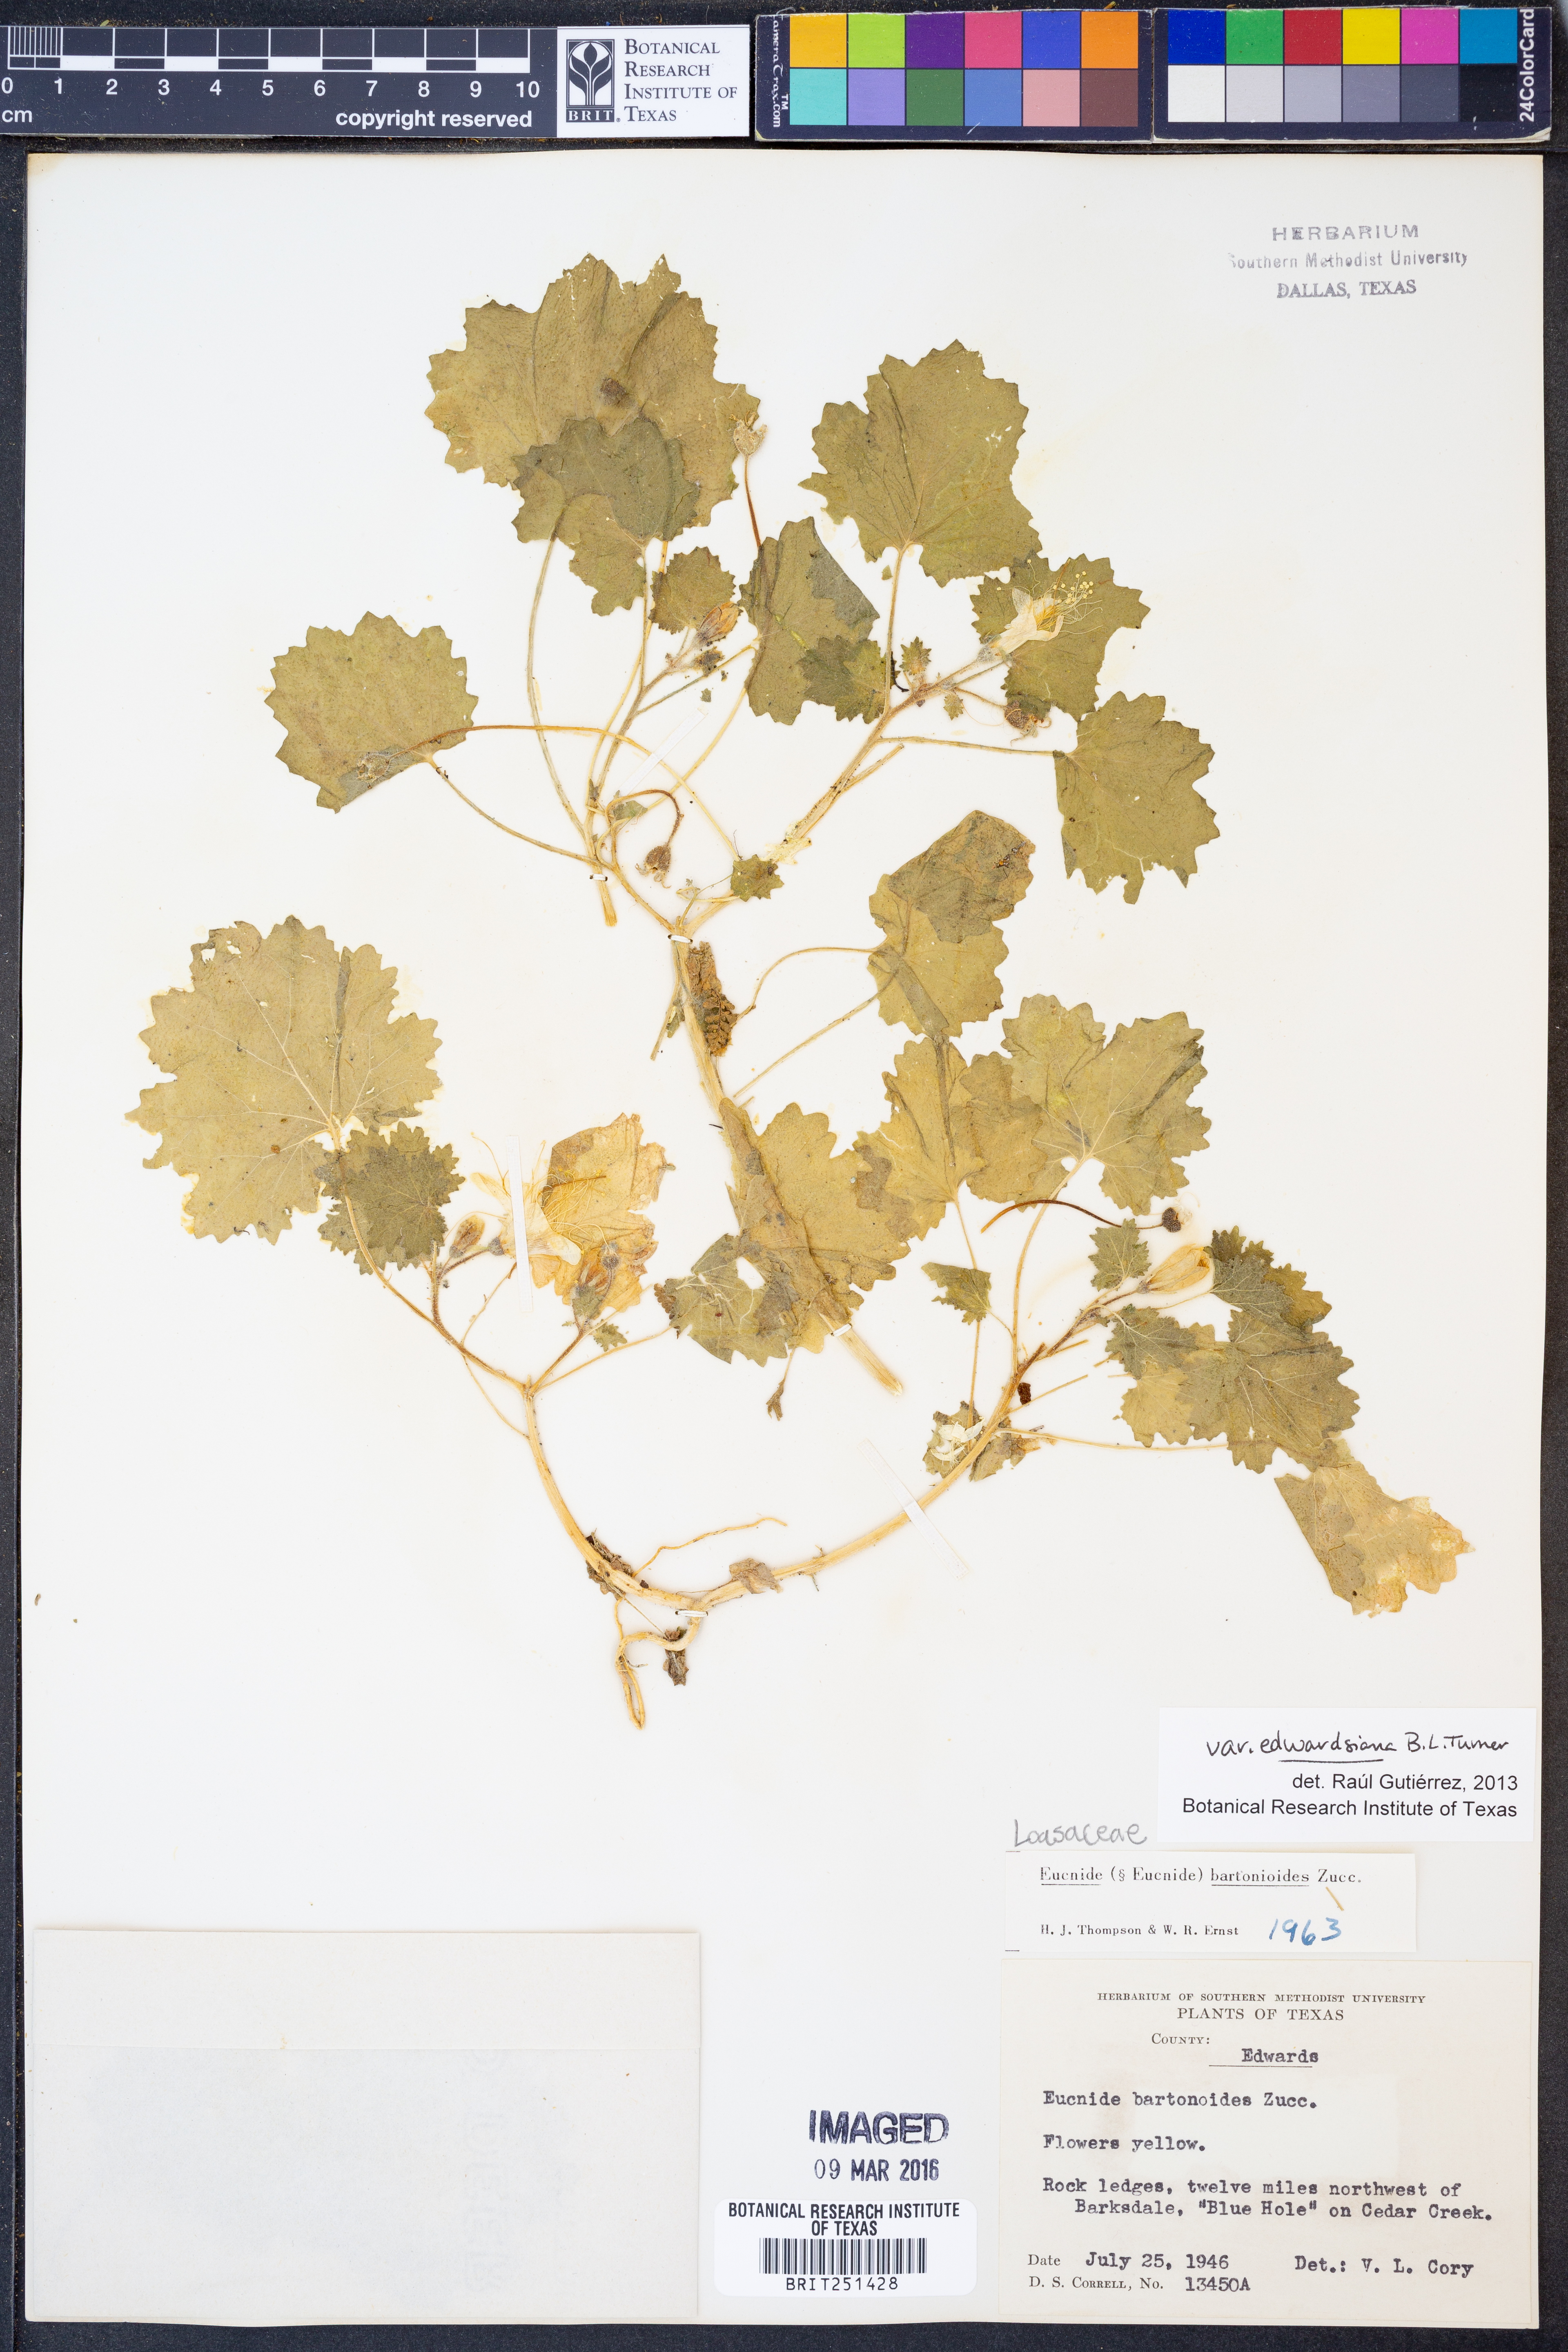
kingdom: Plantae
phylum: Tracheophyta
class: Magnoliopsida
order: Cornales
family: Loasaceae
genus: Eucnide
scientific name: Eucnide bartonioides
